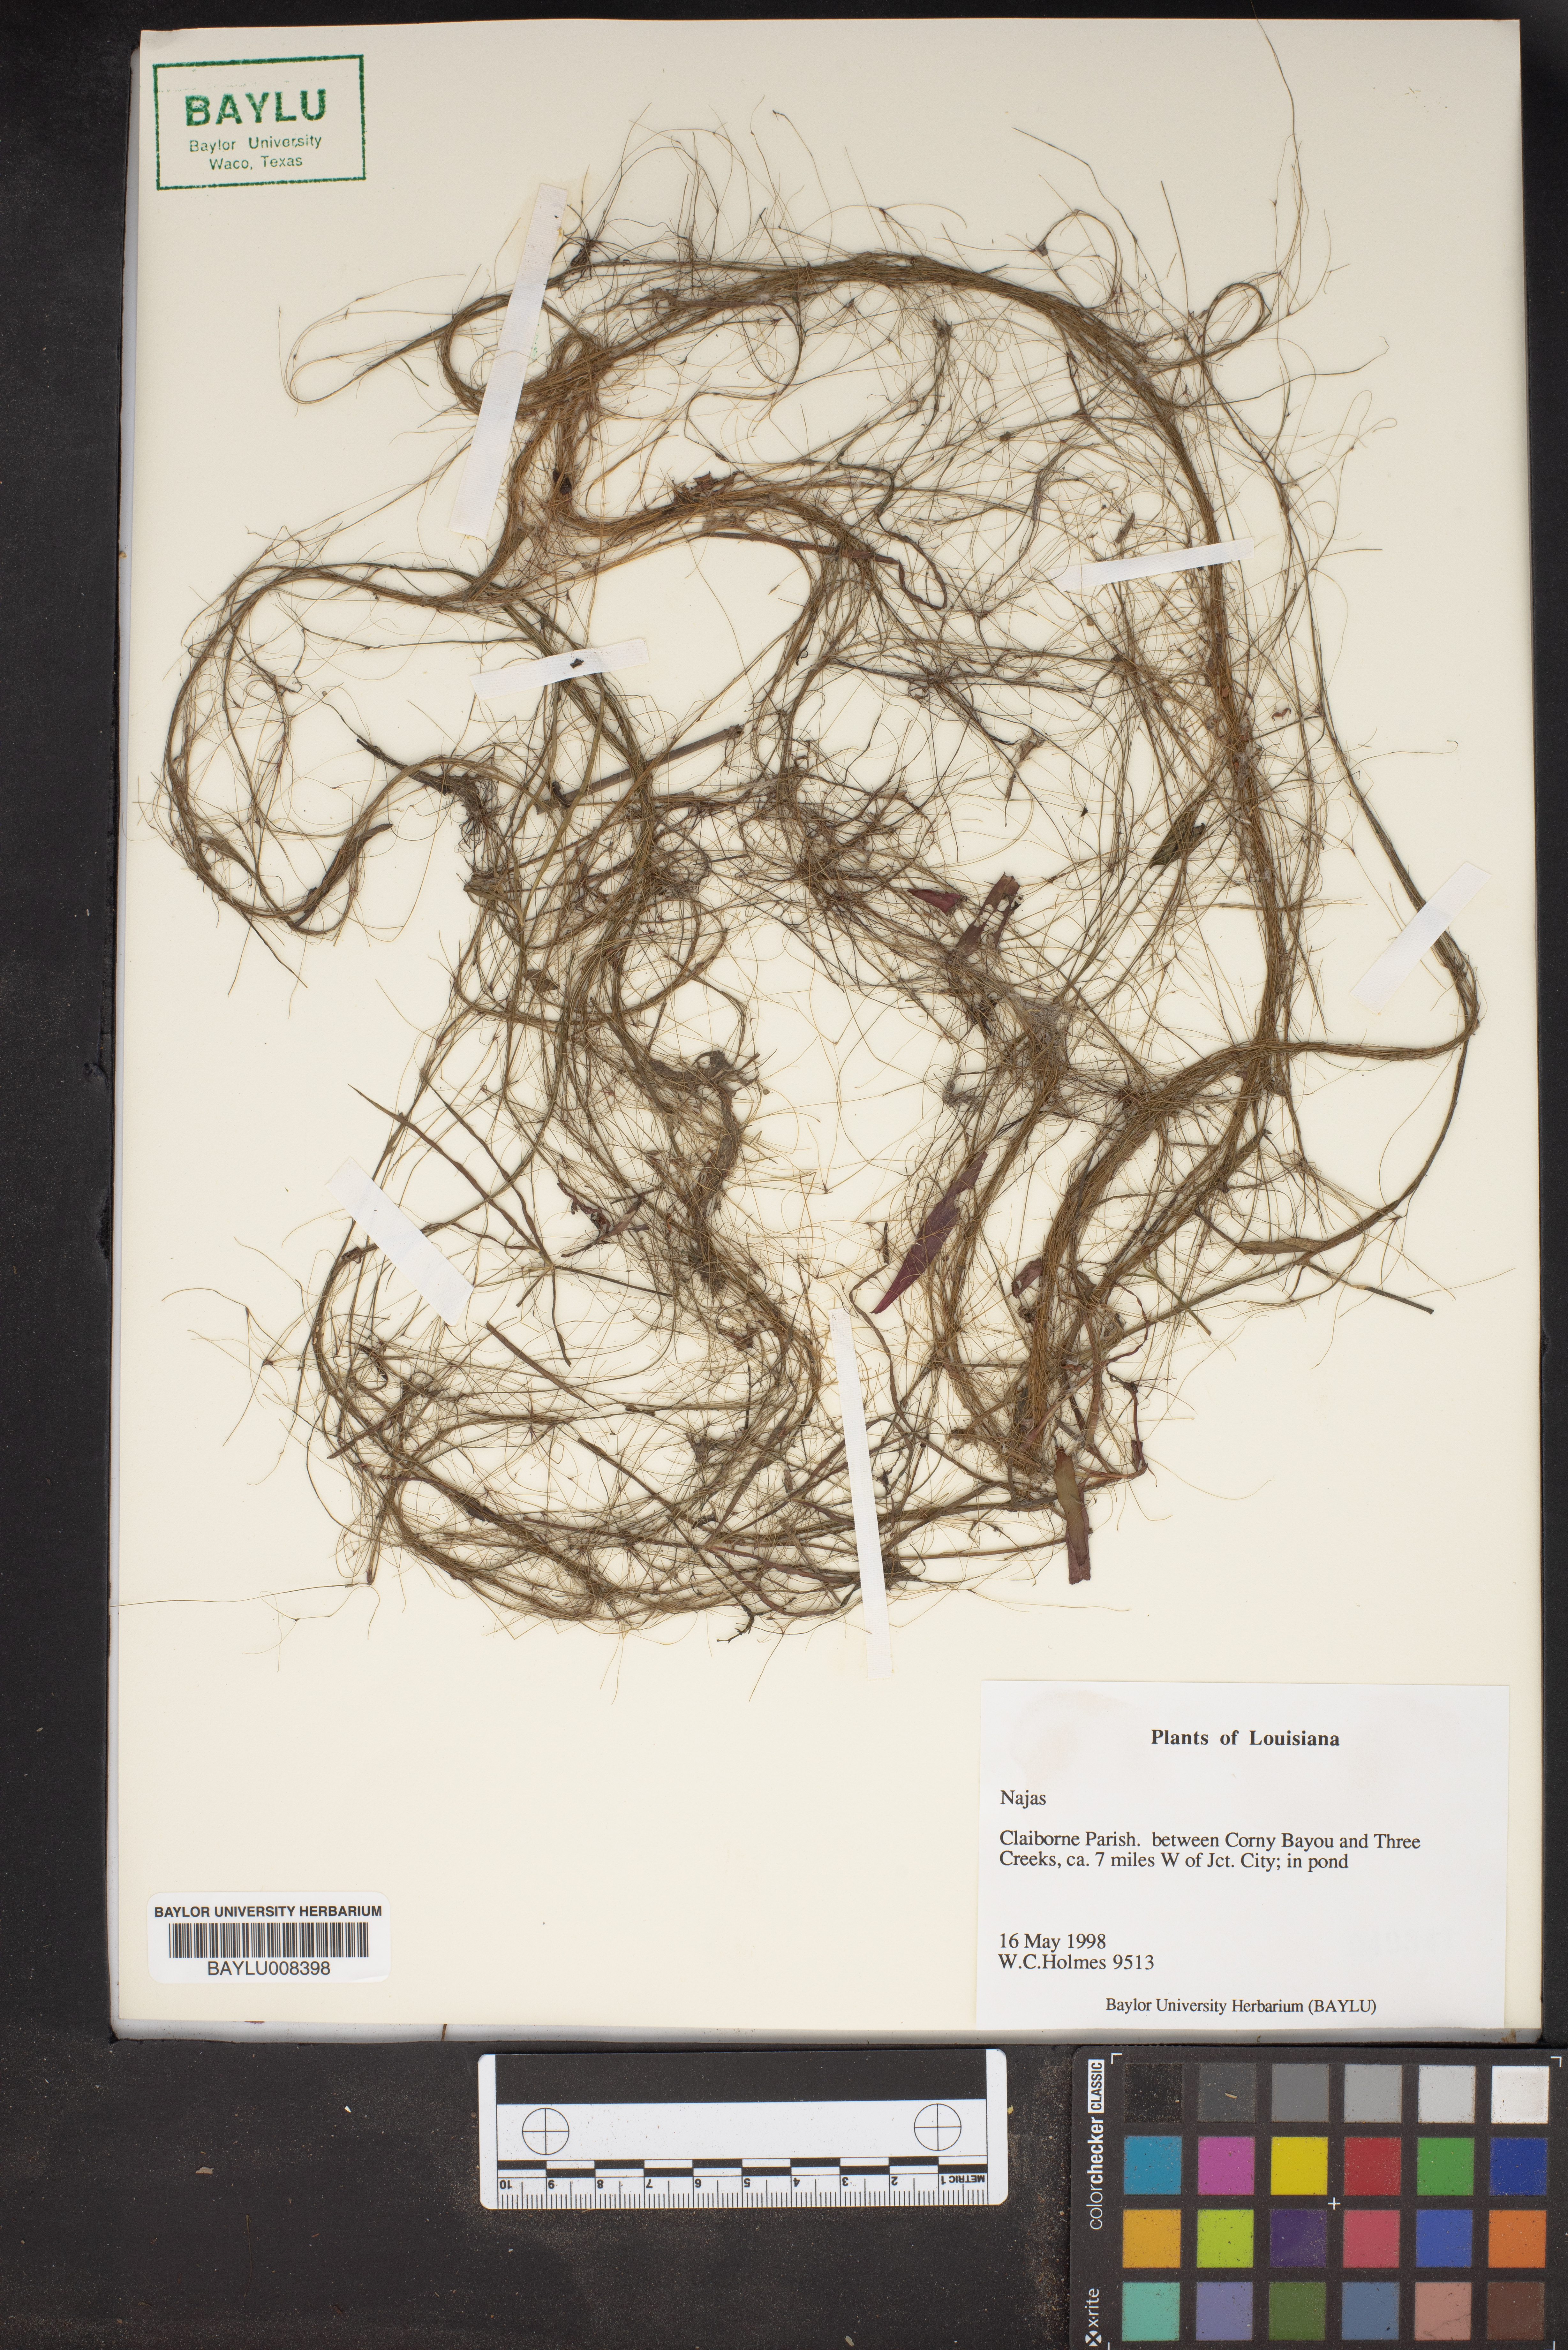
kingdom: Plantae
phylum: Tracheophyta
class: Liliopsida
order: Alismatales
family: Hydrocharitaceae
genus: Najas
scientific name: Najas
